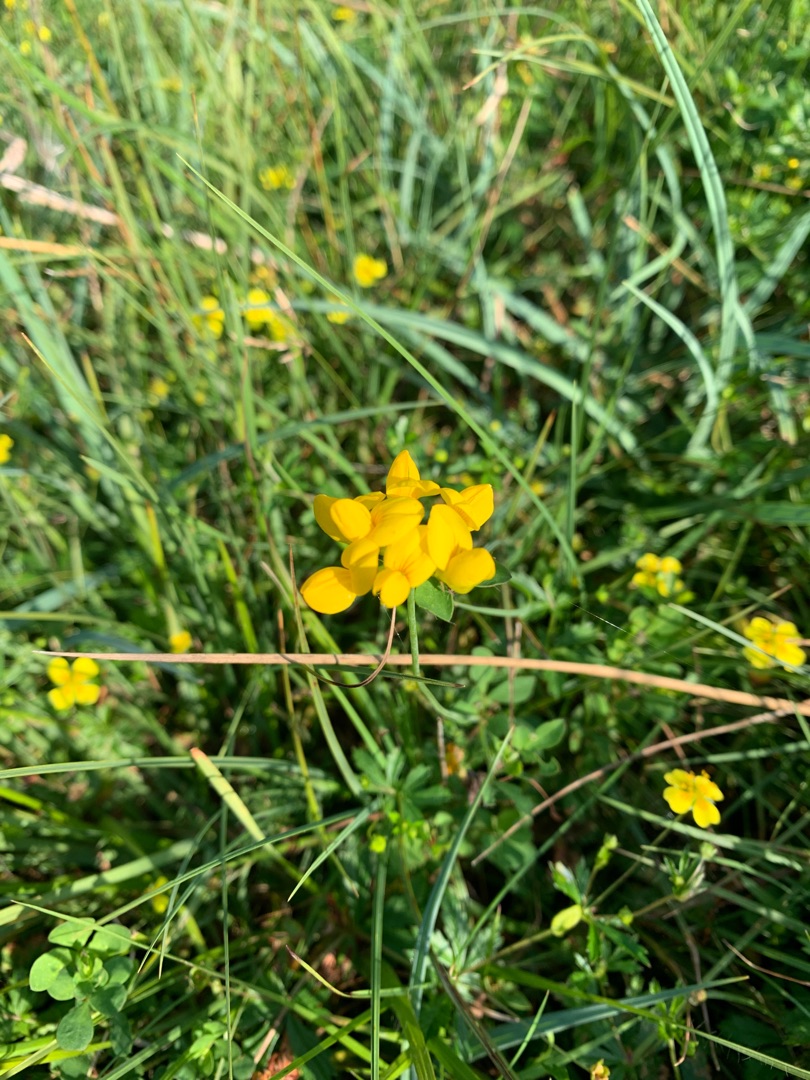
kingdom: Plantae
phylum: Tracheophyta
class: Magnoliopsida
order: Fabales
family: Fabaceae
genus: Lotus
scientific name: Lotus corniculatus
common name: Almindelig kællingetand
